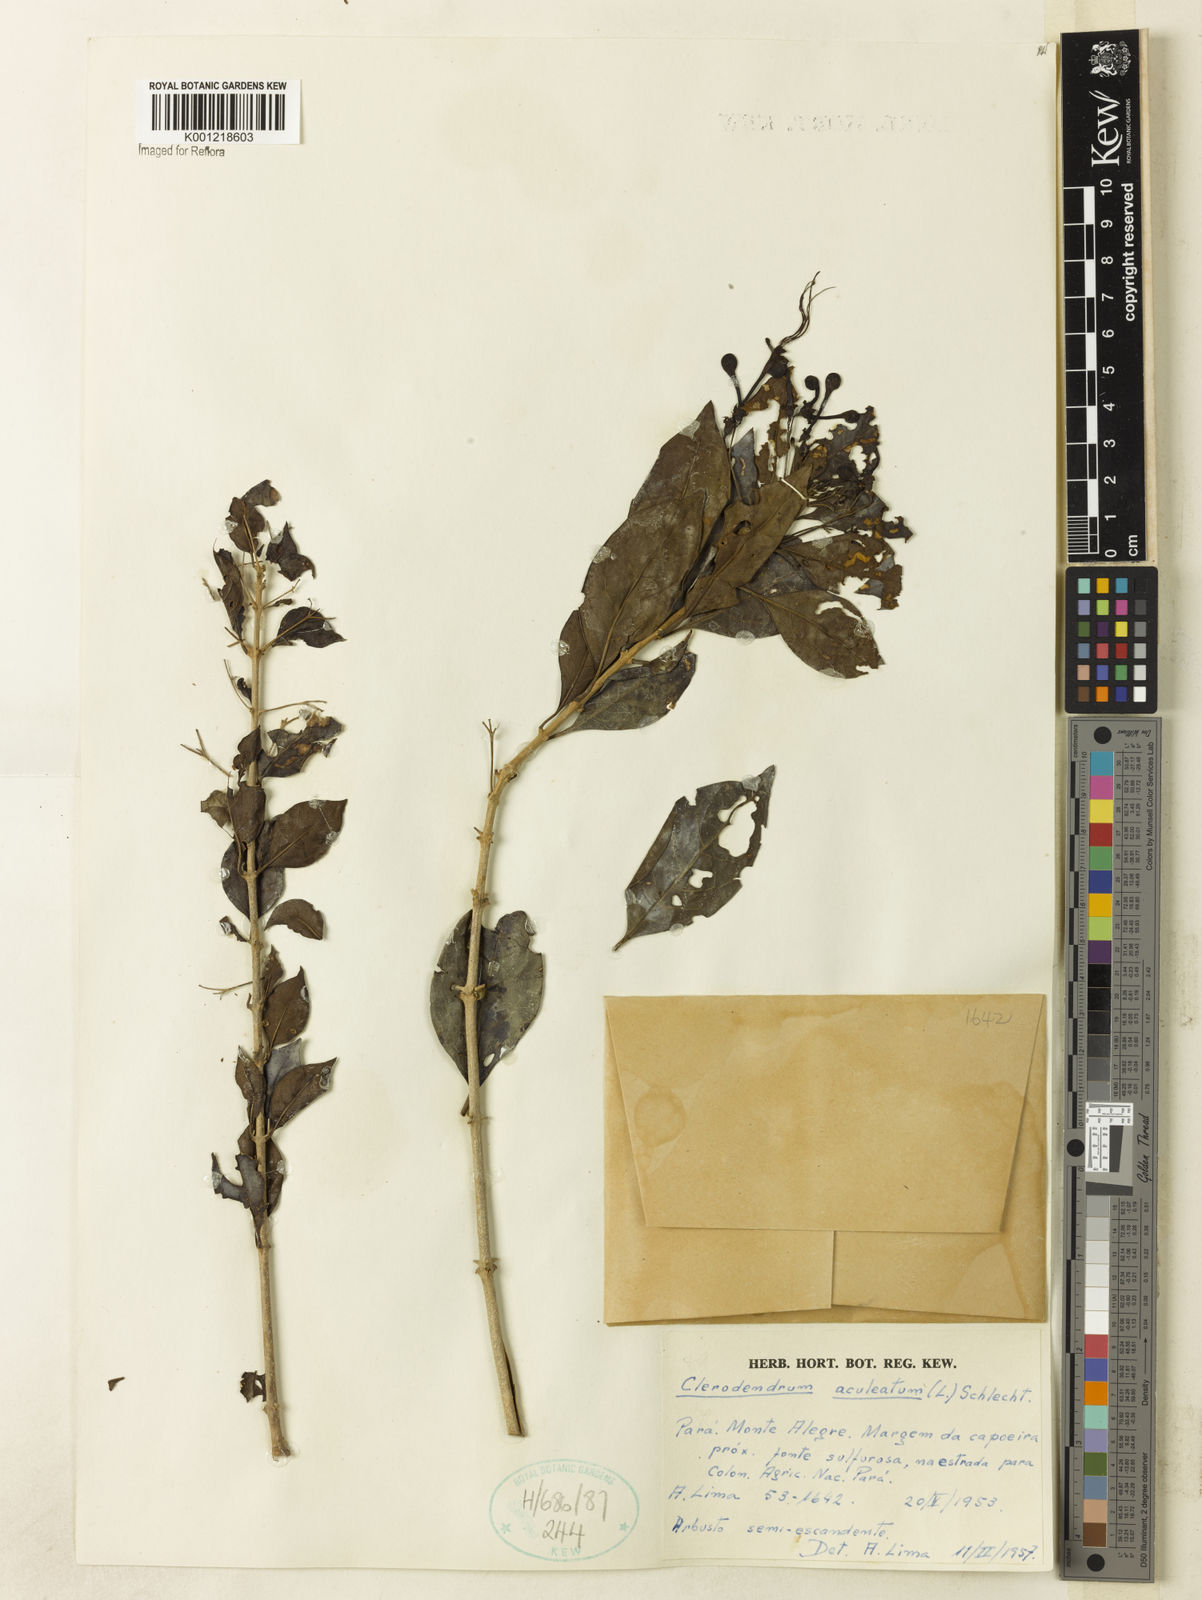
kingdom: Plantae
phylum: Tracheophyta
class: Magnoliopsida
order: Lamiales
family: Lamiaceae
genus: Volkameria
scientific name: Volkameria aculeata
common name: Prickly myrtle
